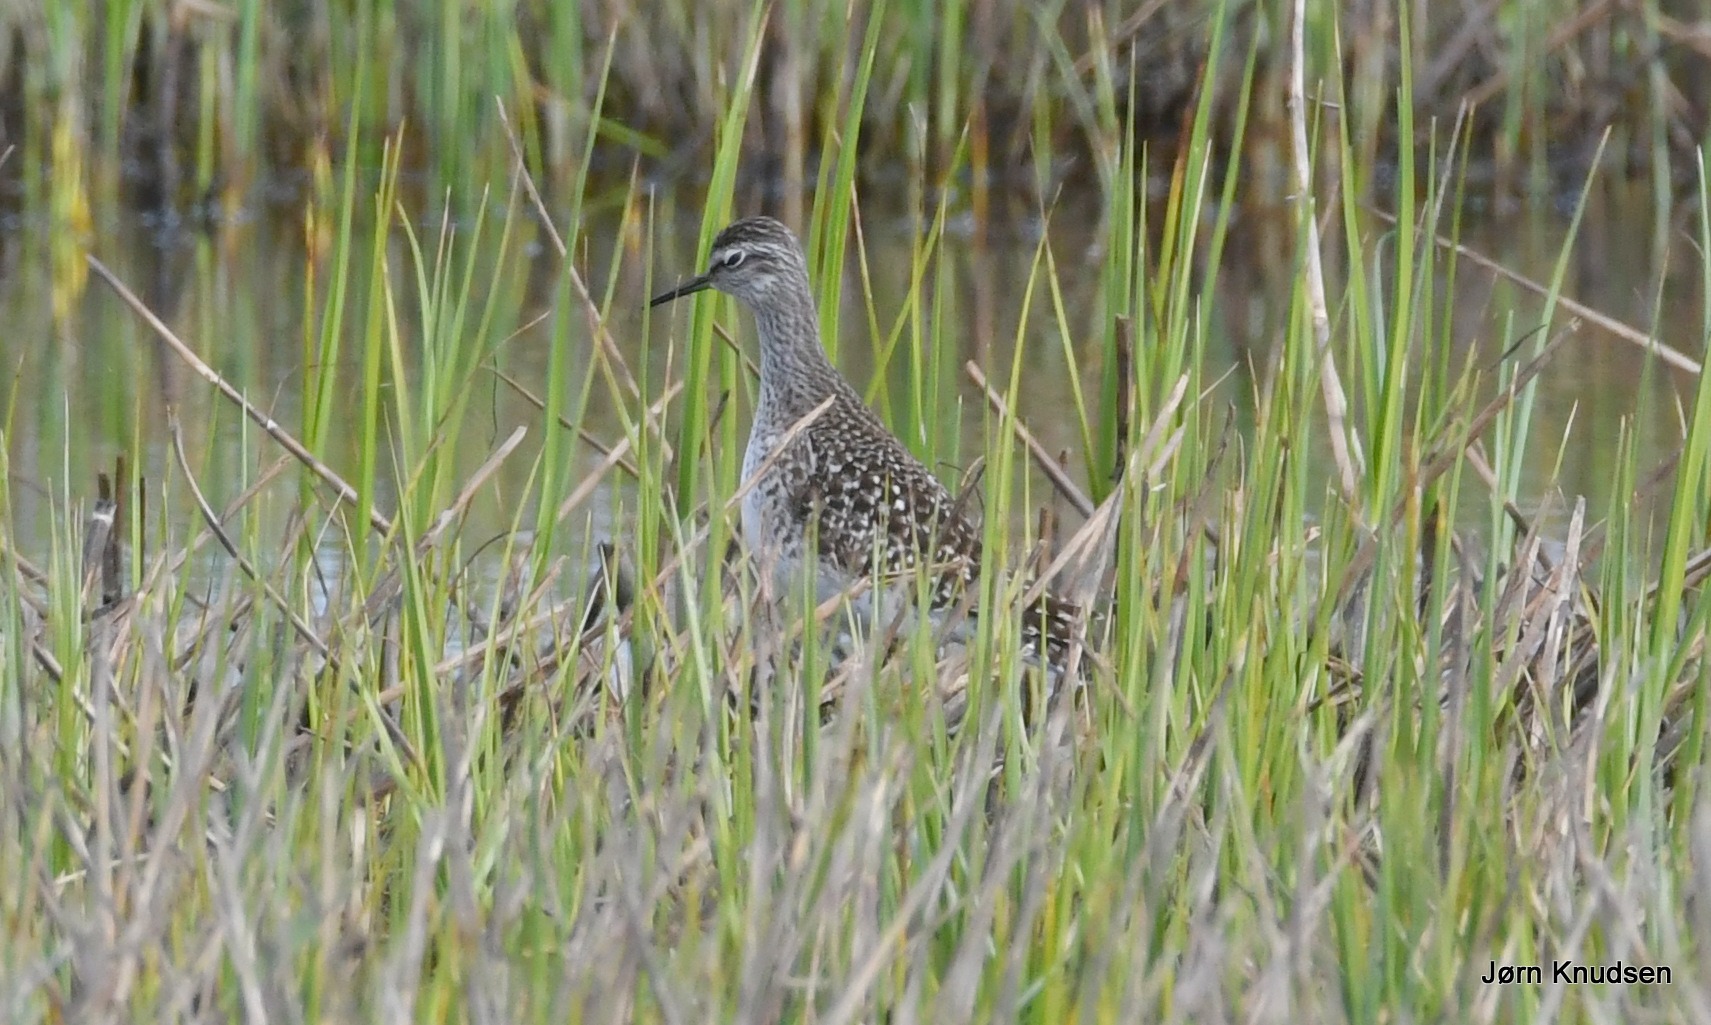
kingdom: Animalia
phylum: Chordata
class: Aves
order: Charadriiformes
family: Scolopacidae
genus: Tringa
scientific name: Tringa glareola
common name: Tinksmed
